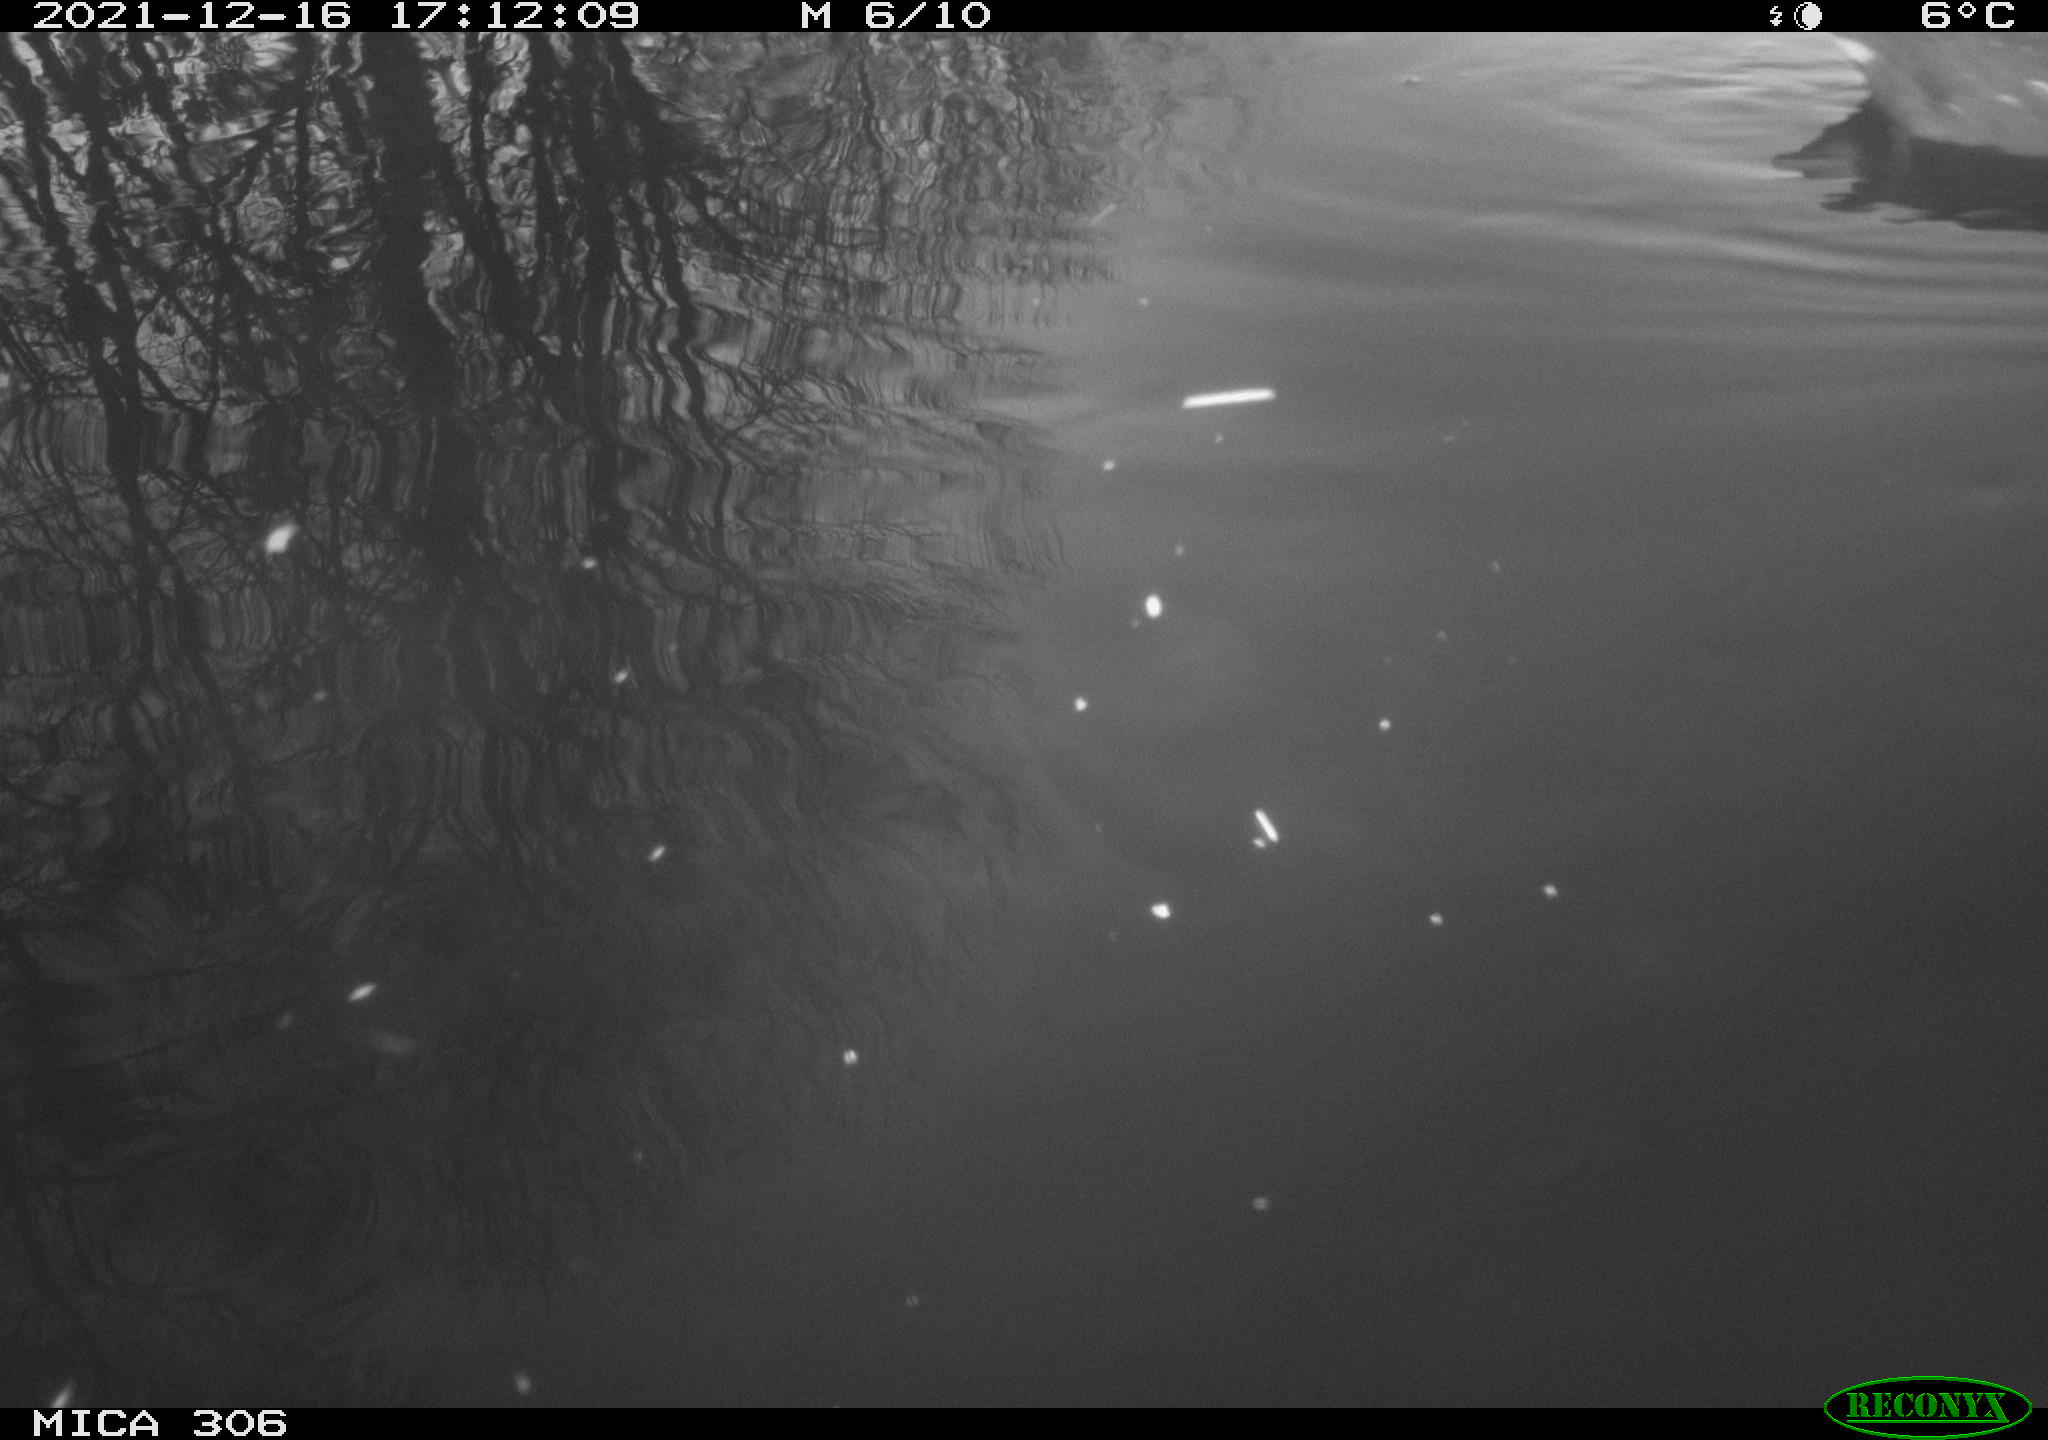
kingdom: Animalia
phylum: Chordata
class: Aves
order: Anseriformes
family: Anatidae
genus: Anas
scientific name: Anas
